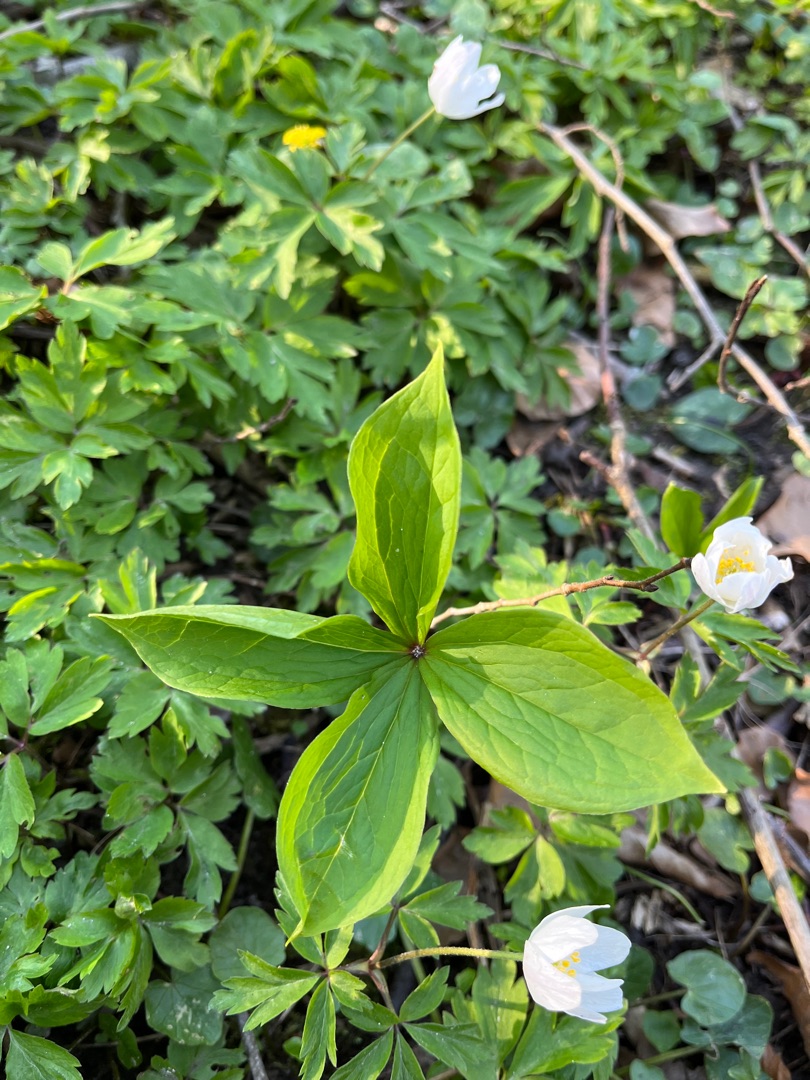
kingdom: Plantae
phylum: Tracheophyta
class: Liliopsida
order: Liliales
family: Melanthiaceae
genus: Paris
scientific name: Paris quadrifolia
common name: Firblad
